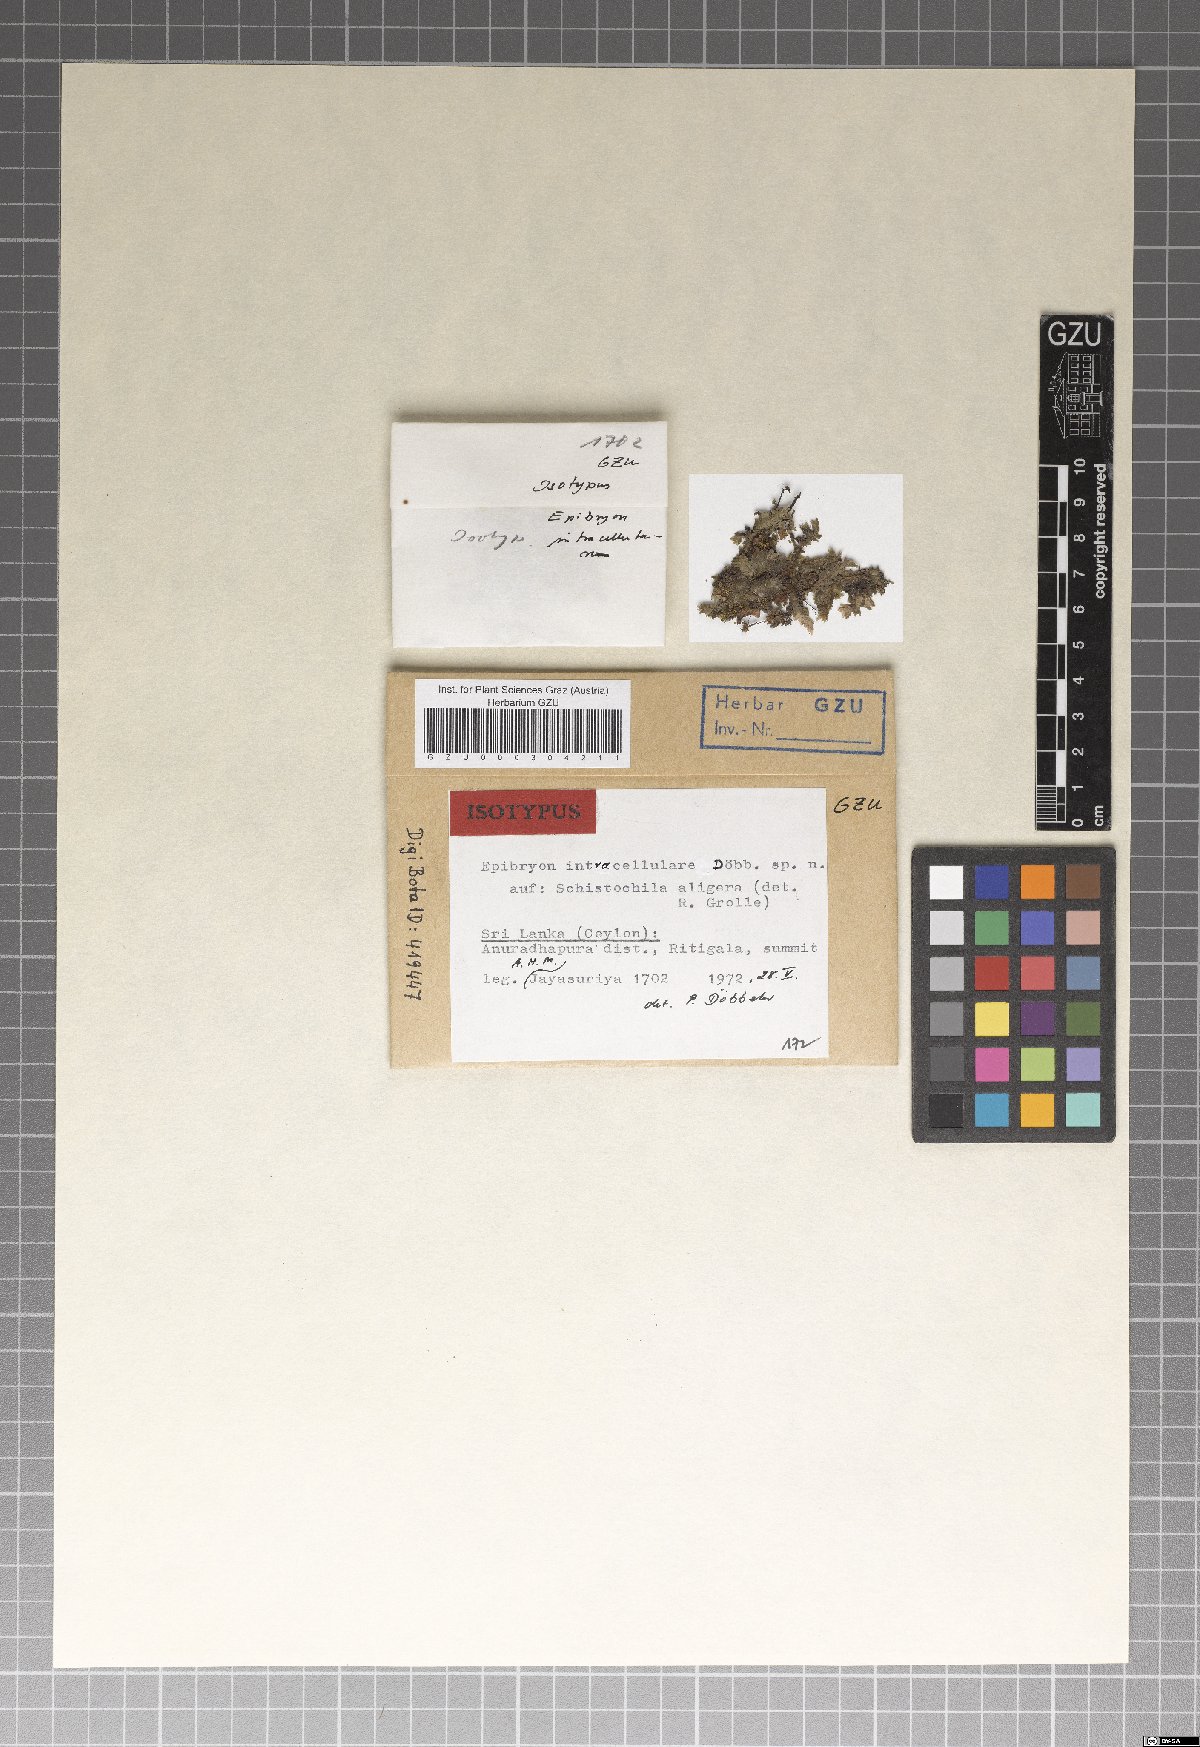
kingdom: Fungi
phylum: Ascomycota
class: Eurotiomycetes
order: Chaetothyriales
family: Epibryaceae
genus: Epibryon
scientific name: Epibryon intracellulare
